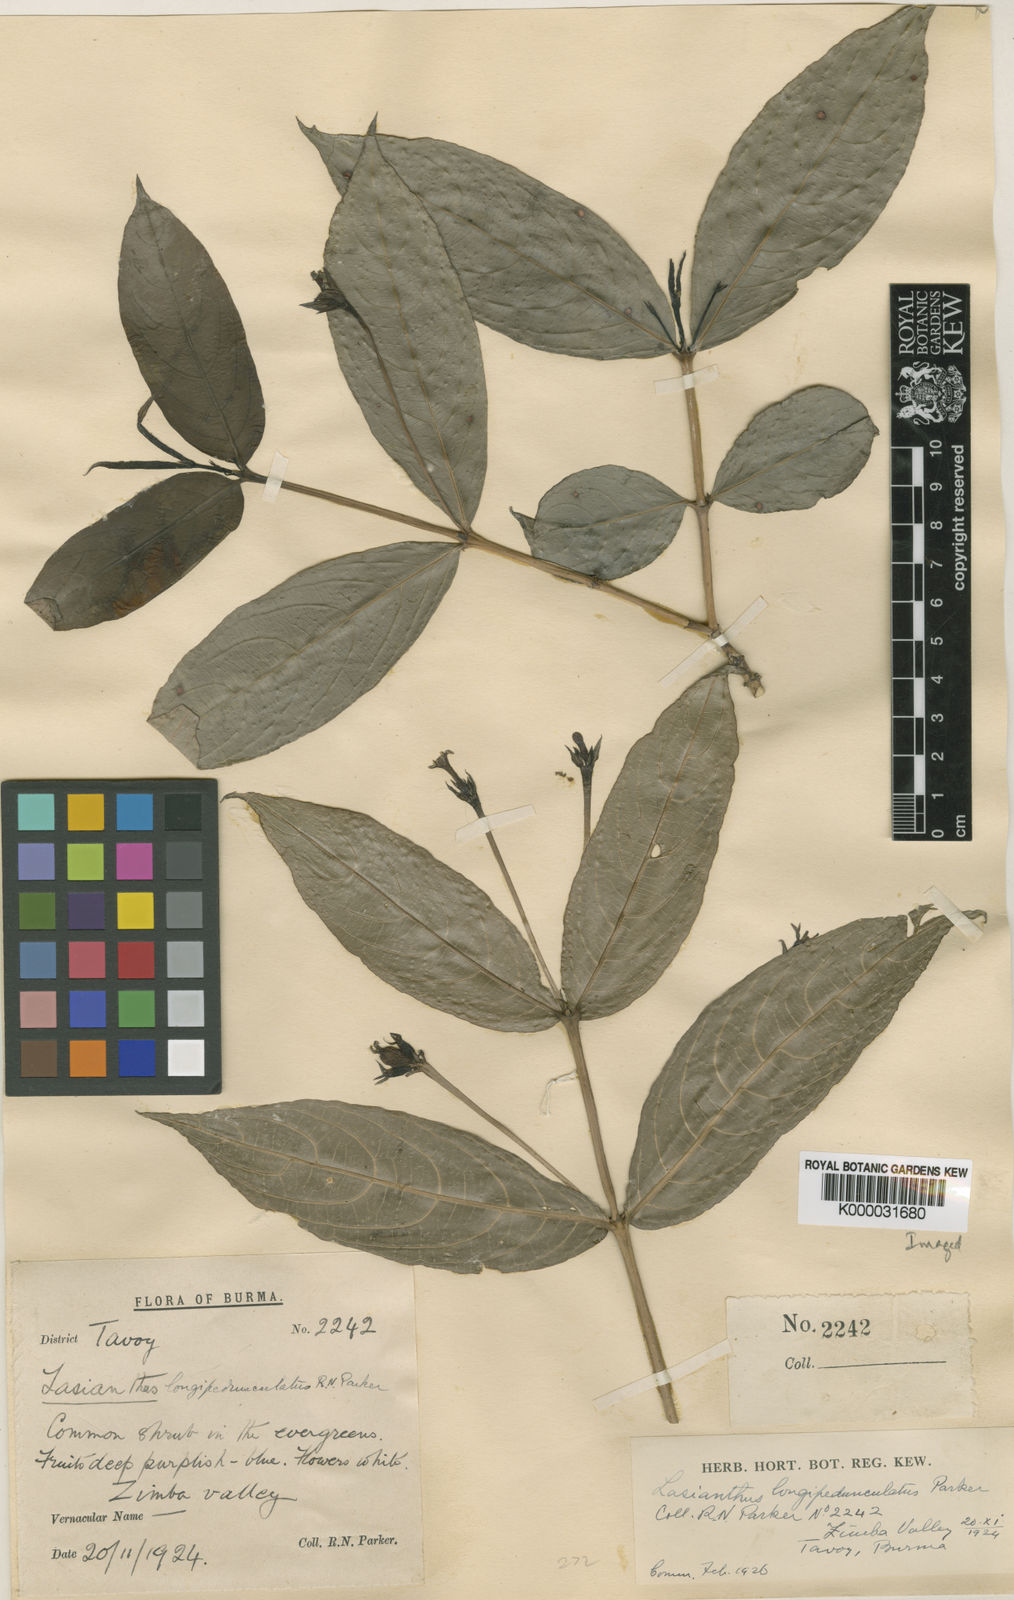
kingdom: Plantae
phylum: Tracheophyta
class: Magnoliopsida
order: Gentianales
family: Rubiaceae
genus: Lasianthus
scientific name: Lasianthus longipedunculatus
